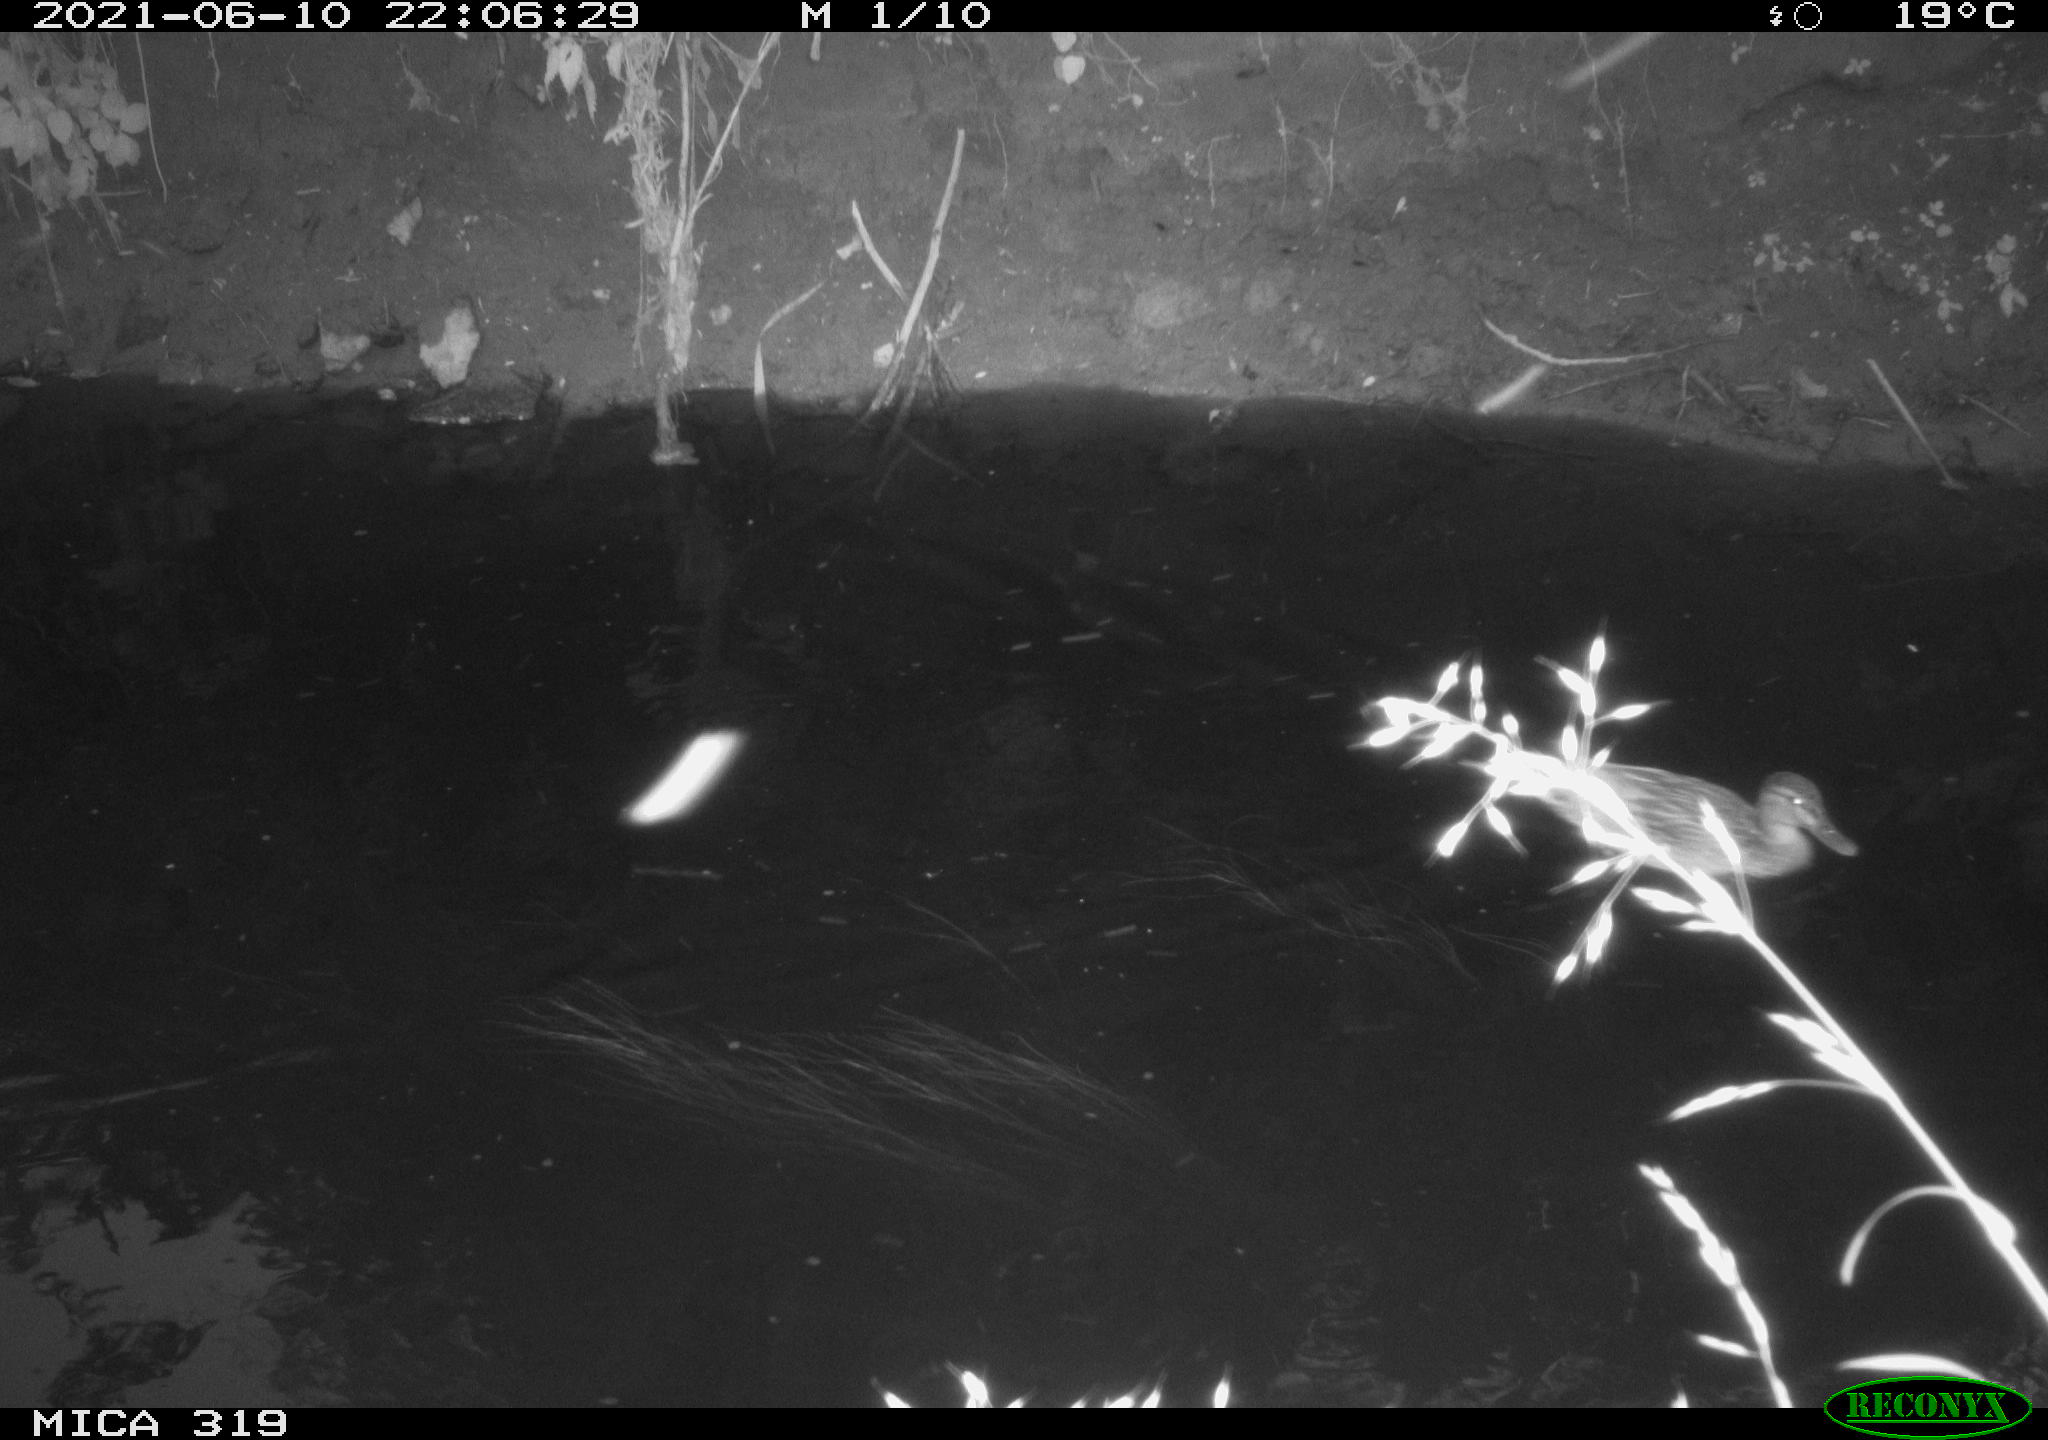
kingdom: Animalia
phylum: Chordata
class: Aves
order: Anseriformes
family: Anatidae
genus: Anas
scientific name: Anas platyrhynchos
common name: Mallard
